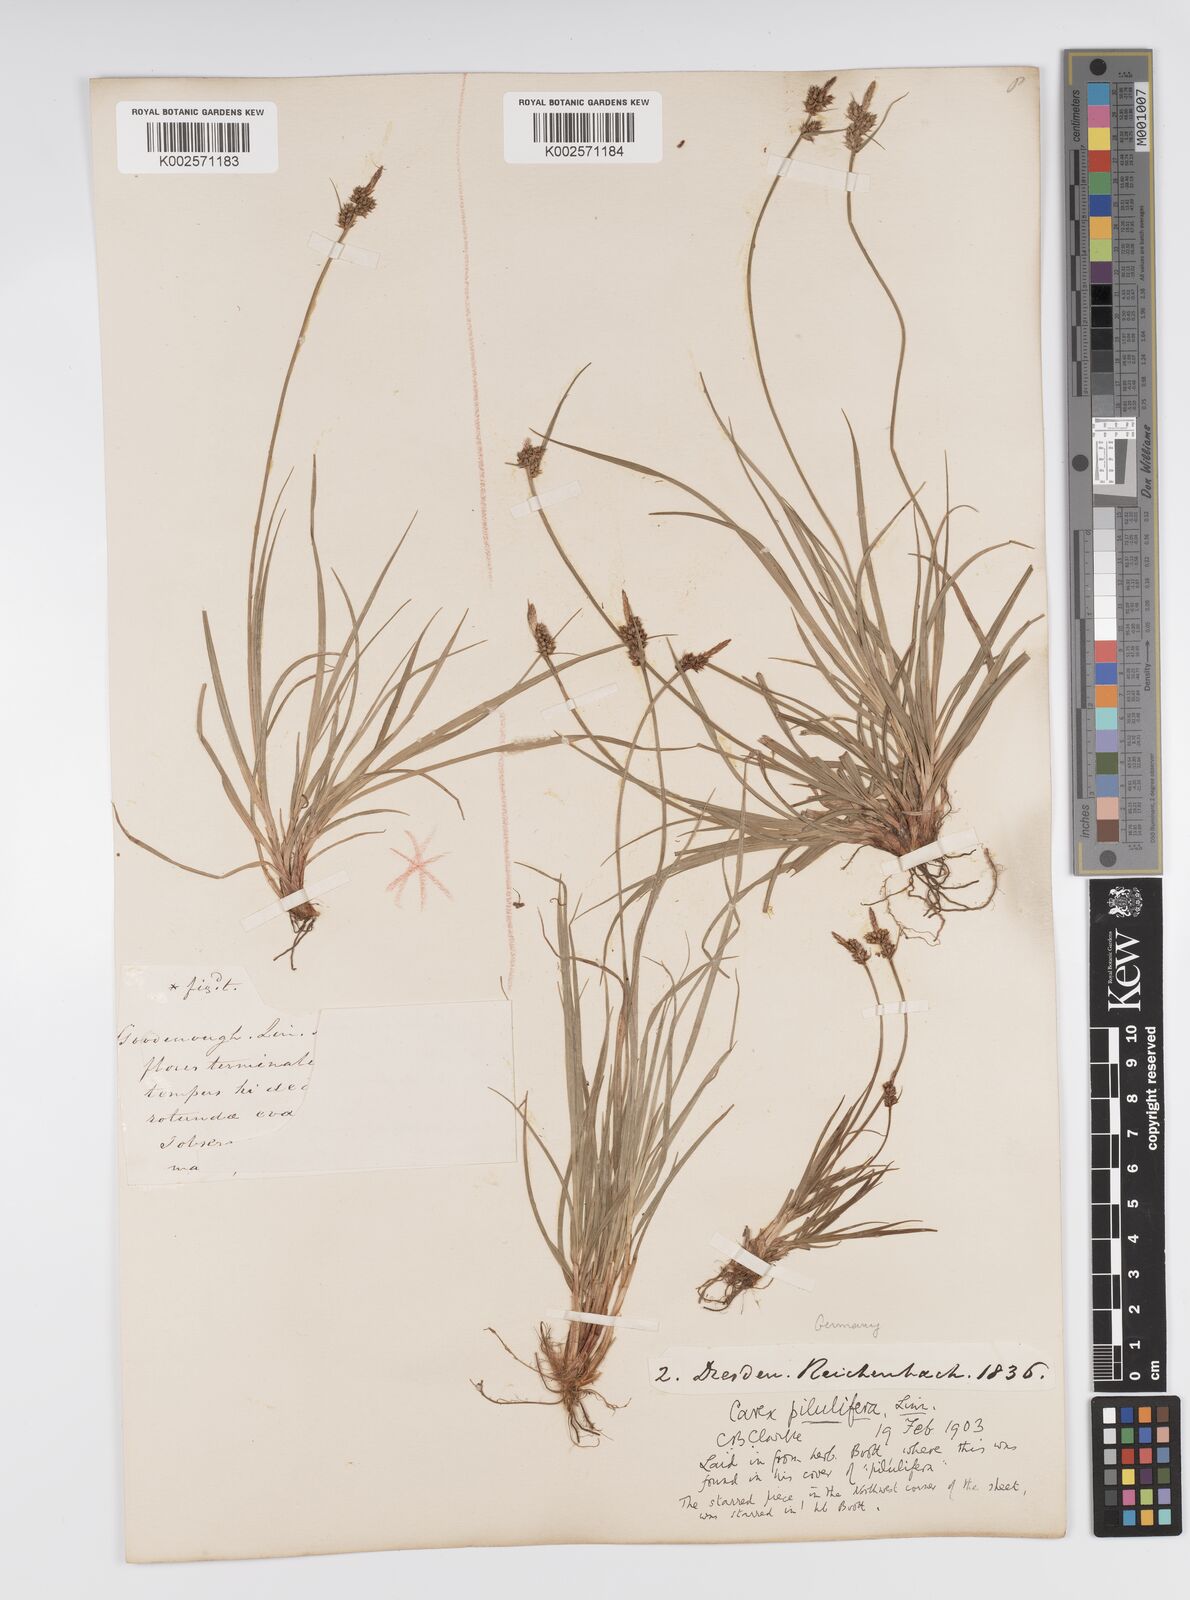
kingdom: Plantae
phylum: Tracheophyta
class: Liliopsida
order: Poales
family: Cyperaceae
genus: Carex
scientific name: Carex pilulifera
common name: Pill sedge
